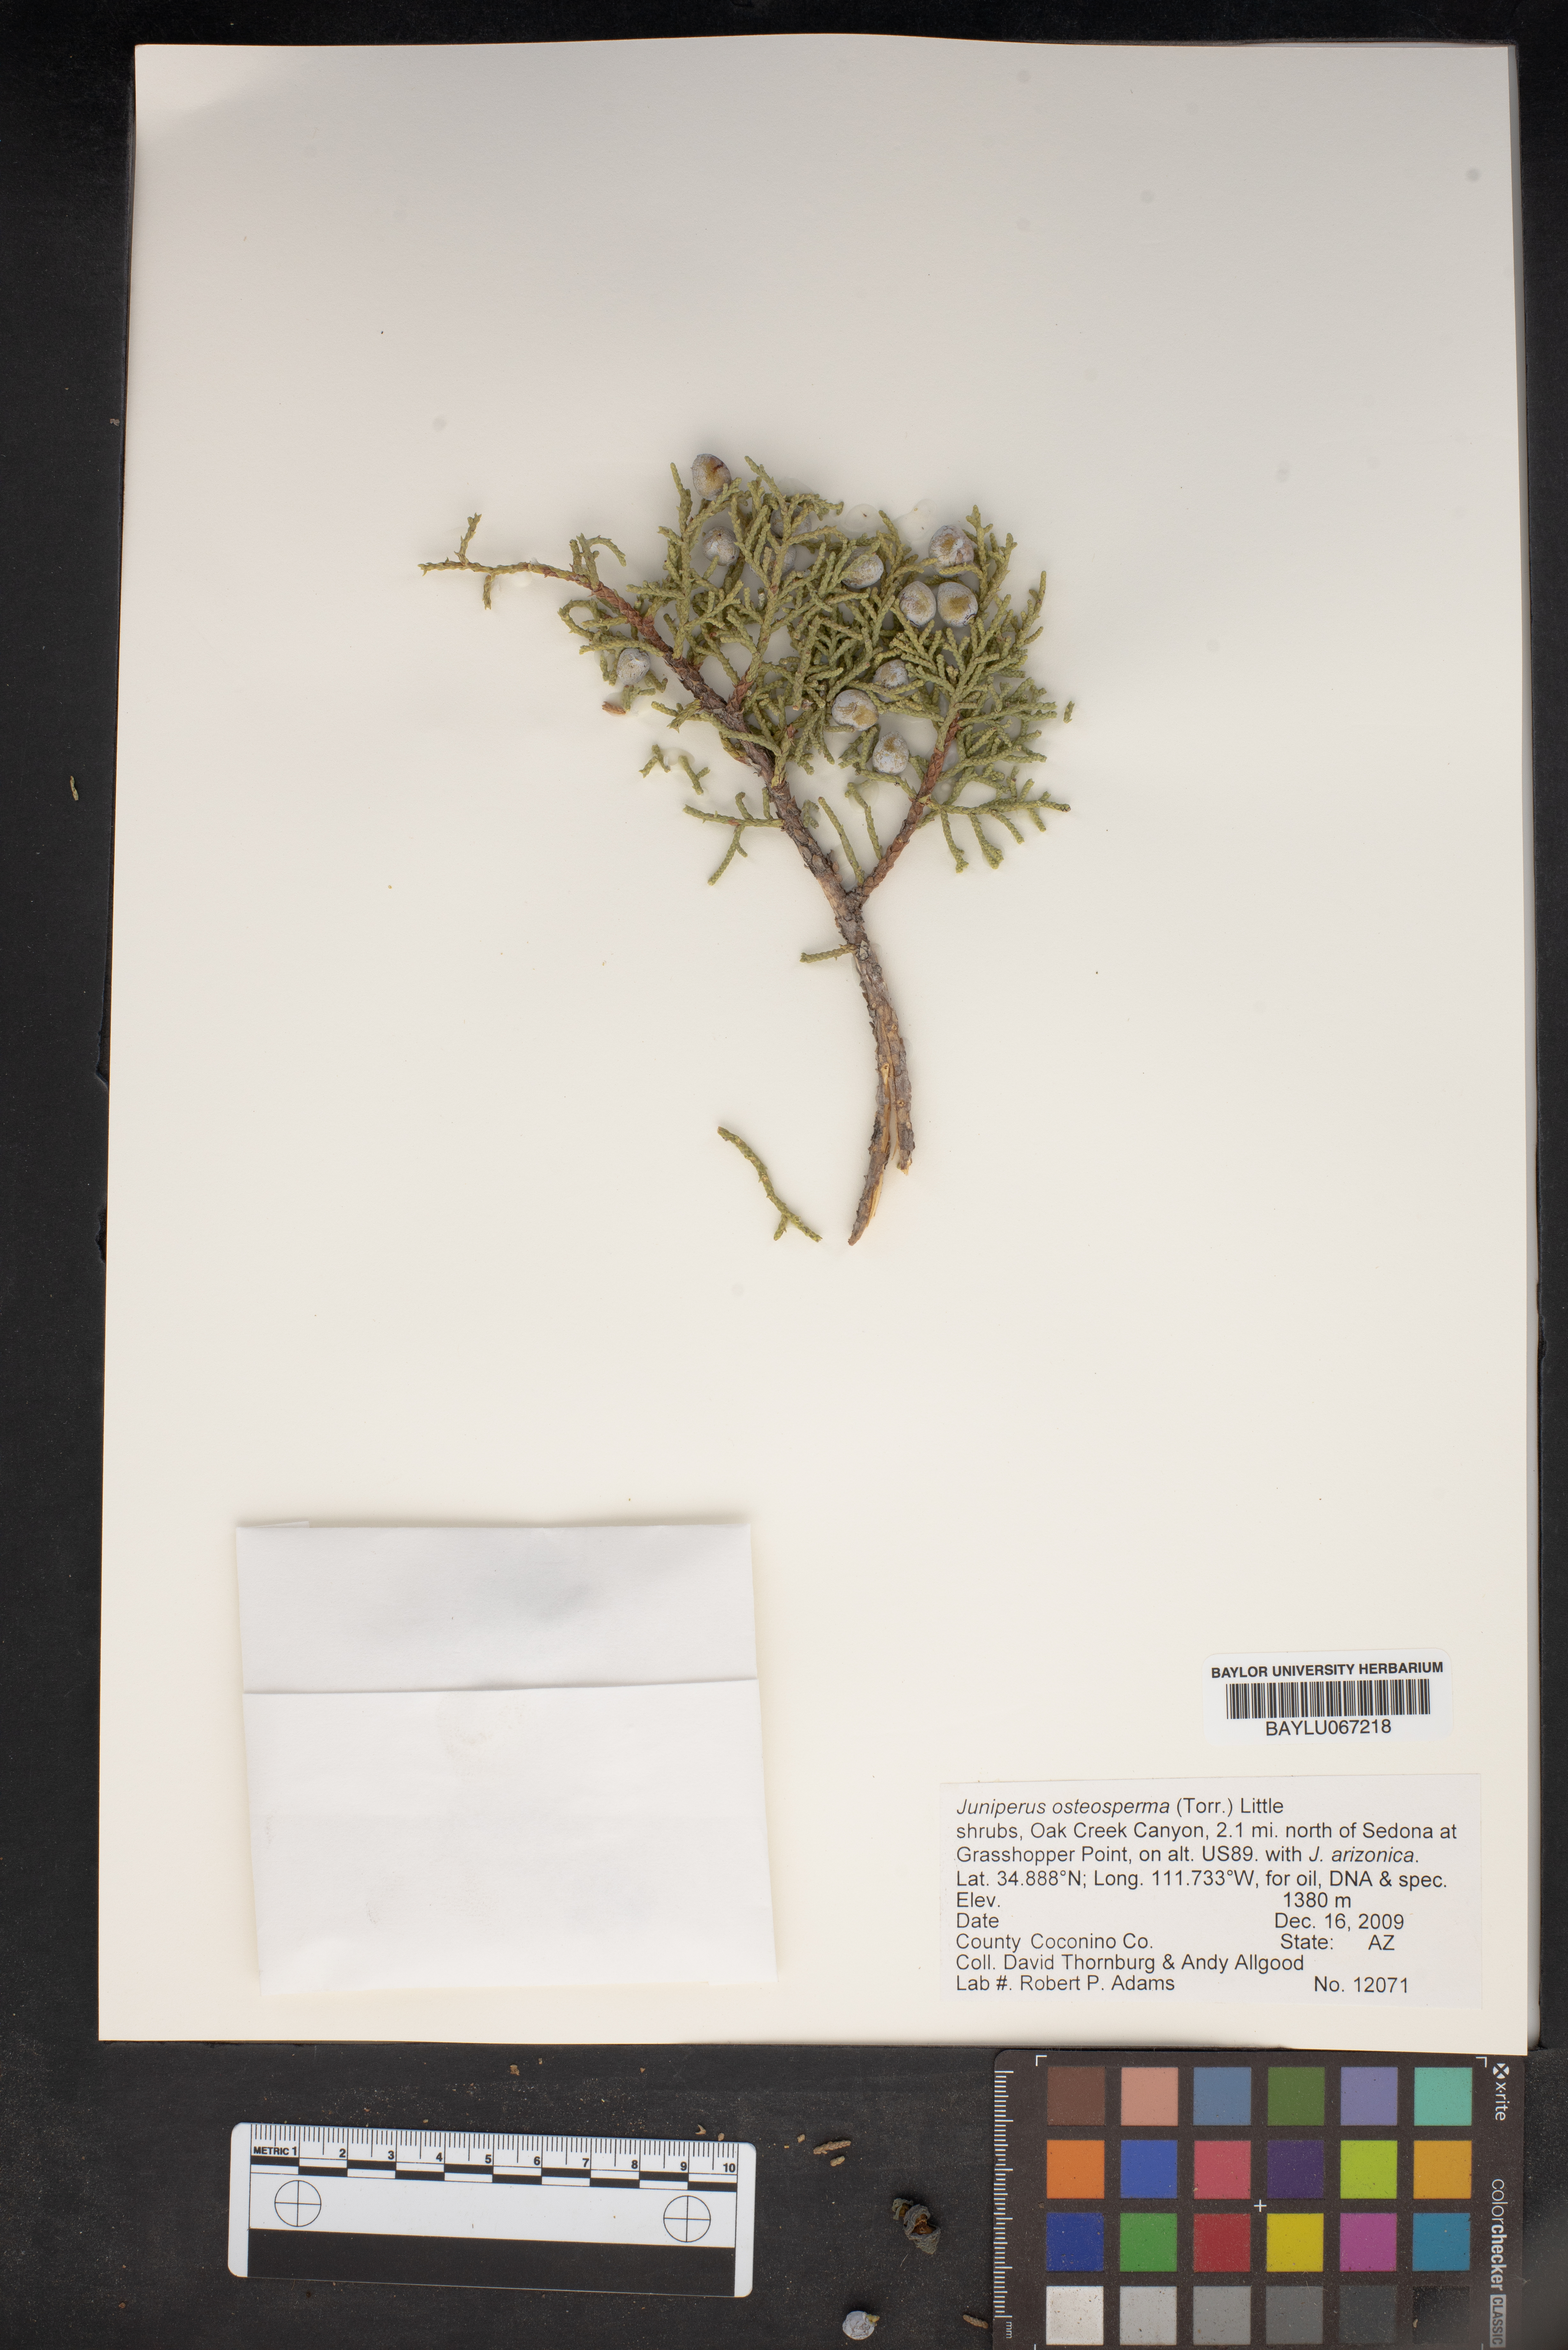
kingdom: Plantae
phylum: Tracheophyta
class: Pinopsida
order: Pinales
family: Cupressaceae
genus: Juniperus
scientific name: Juniperus osteosperma
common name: Utah juniper
